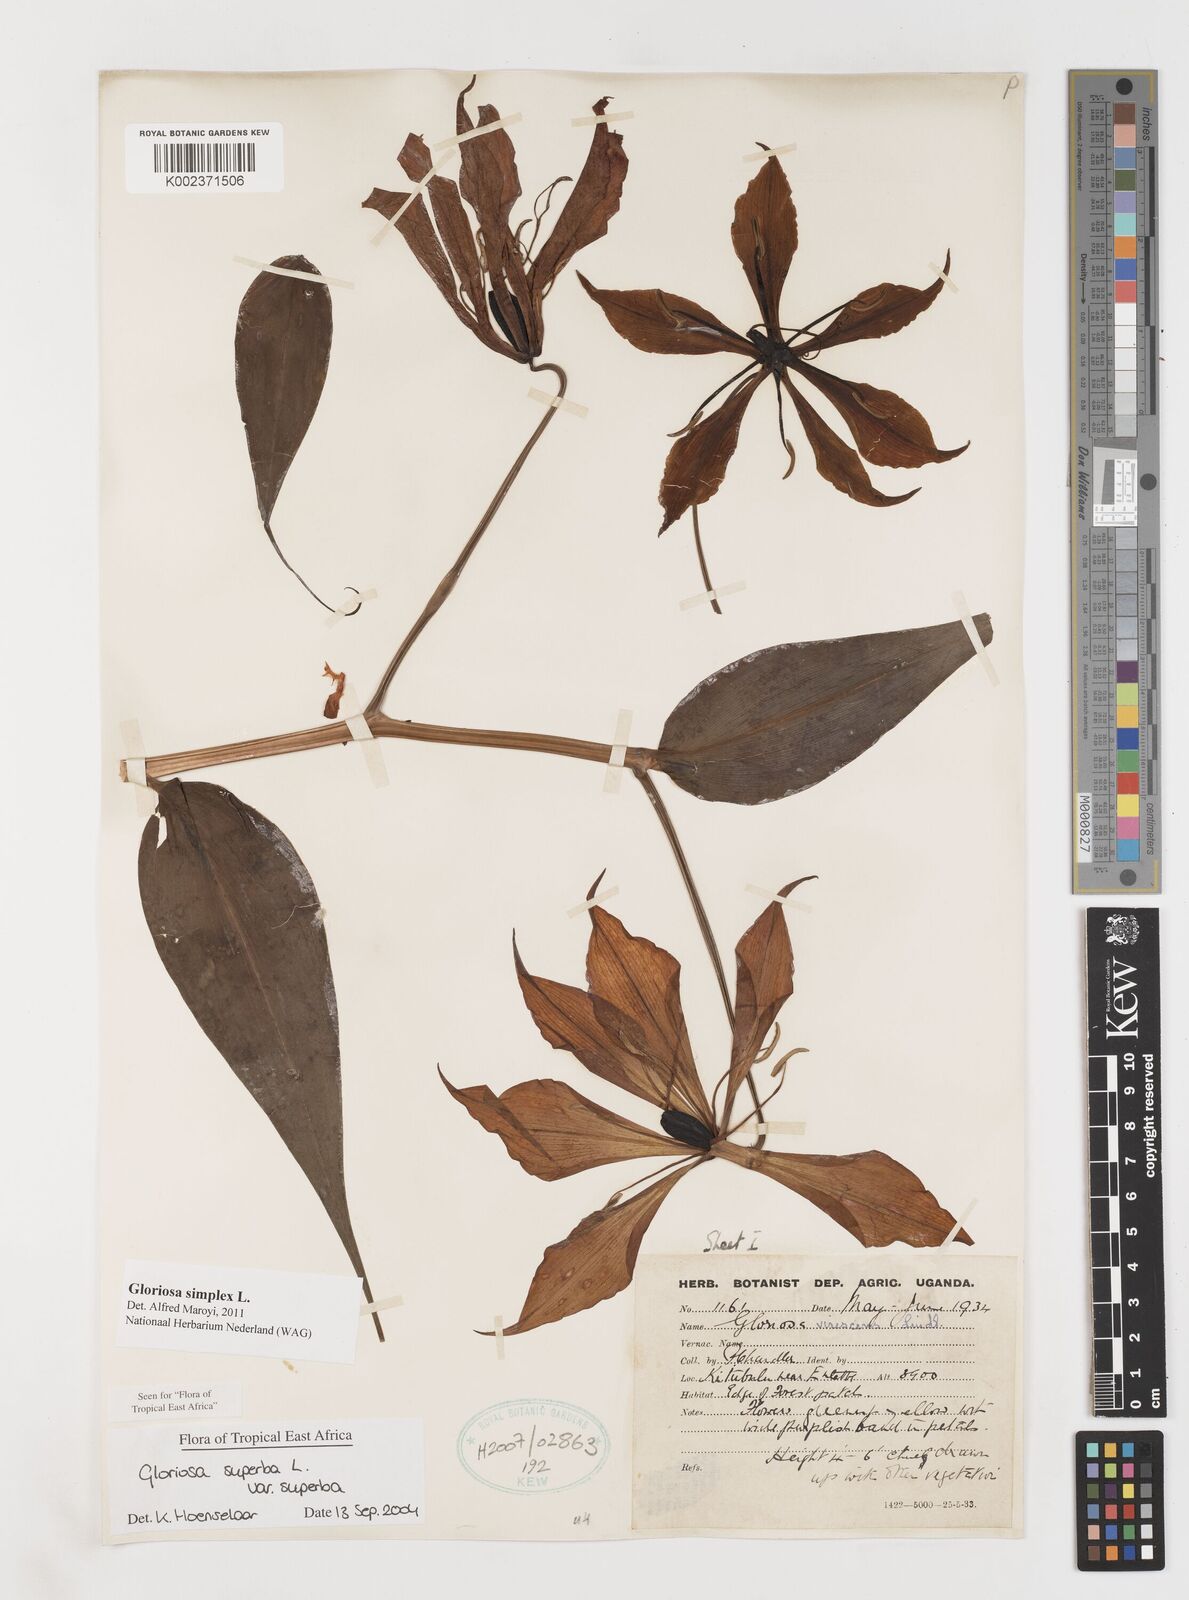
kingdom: Plantae
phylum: Tracheophyta
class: Liliopsida
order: Liliales
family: Colchicaceae
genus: Gloriosa
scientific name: Gloriosa simplex
